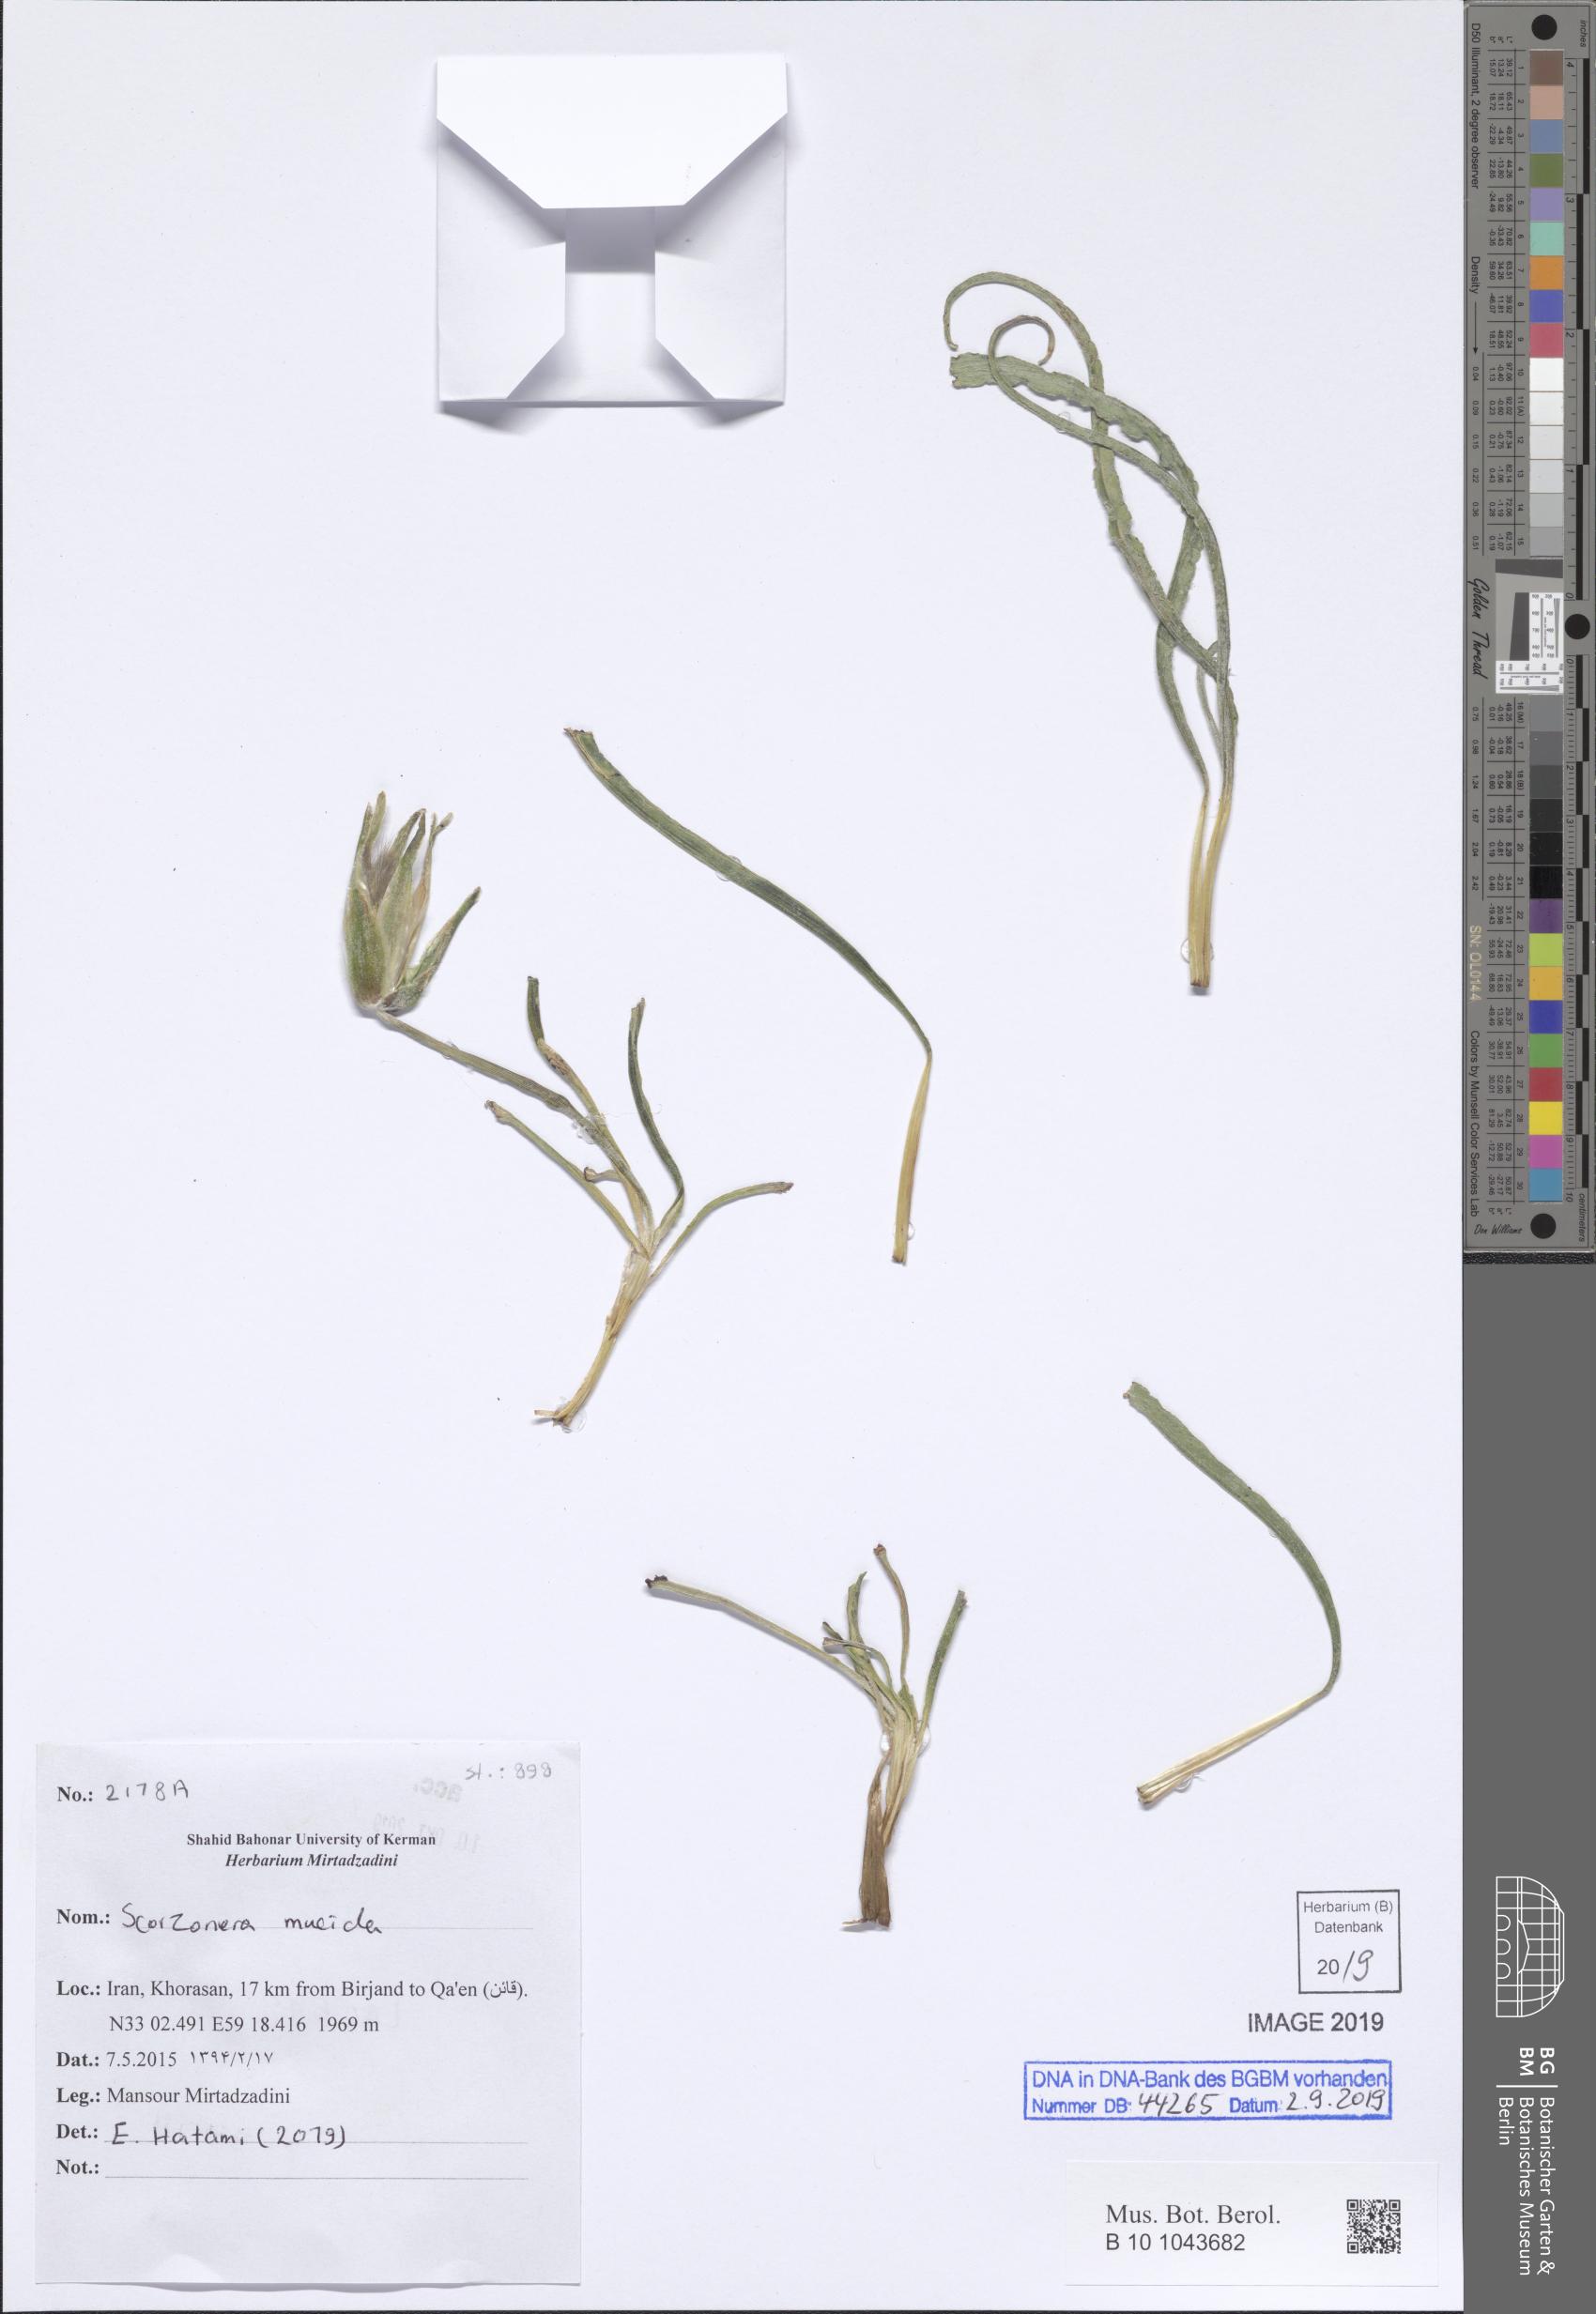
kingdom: Plantae
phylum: Tracheophyta
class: Magnoliopsida
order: Asterales
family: Asteraceae
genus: Candollea
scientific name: Candollea mucida
